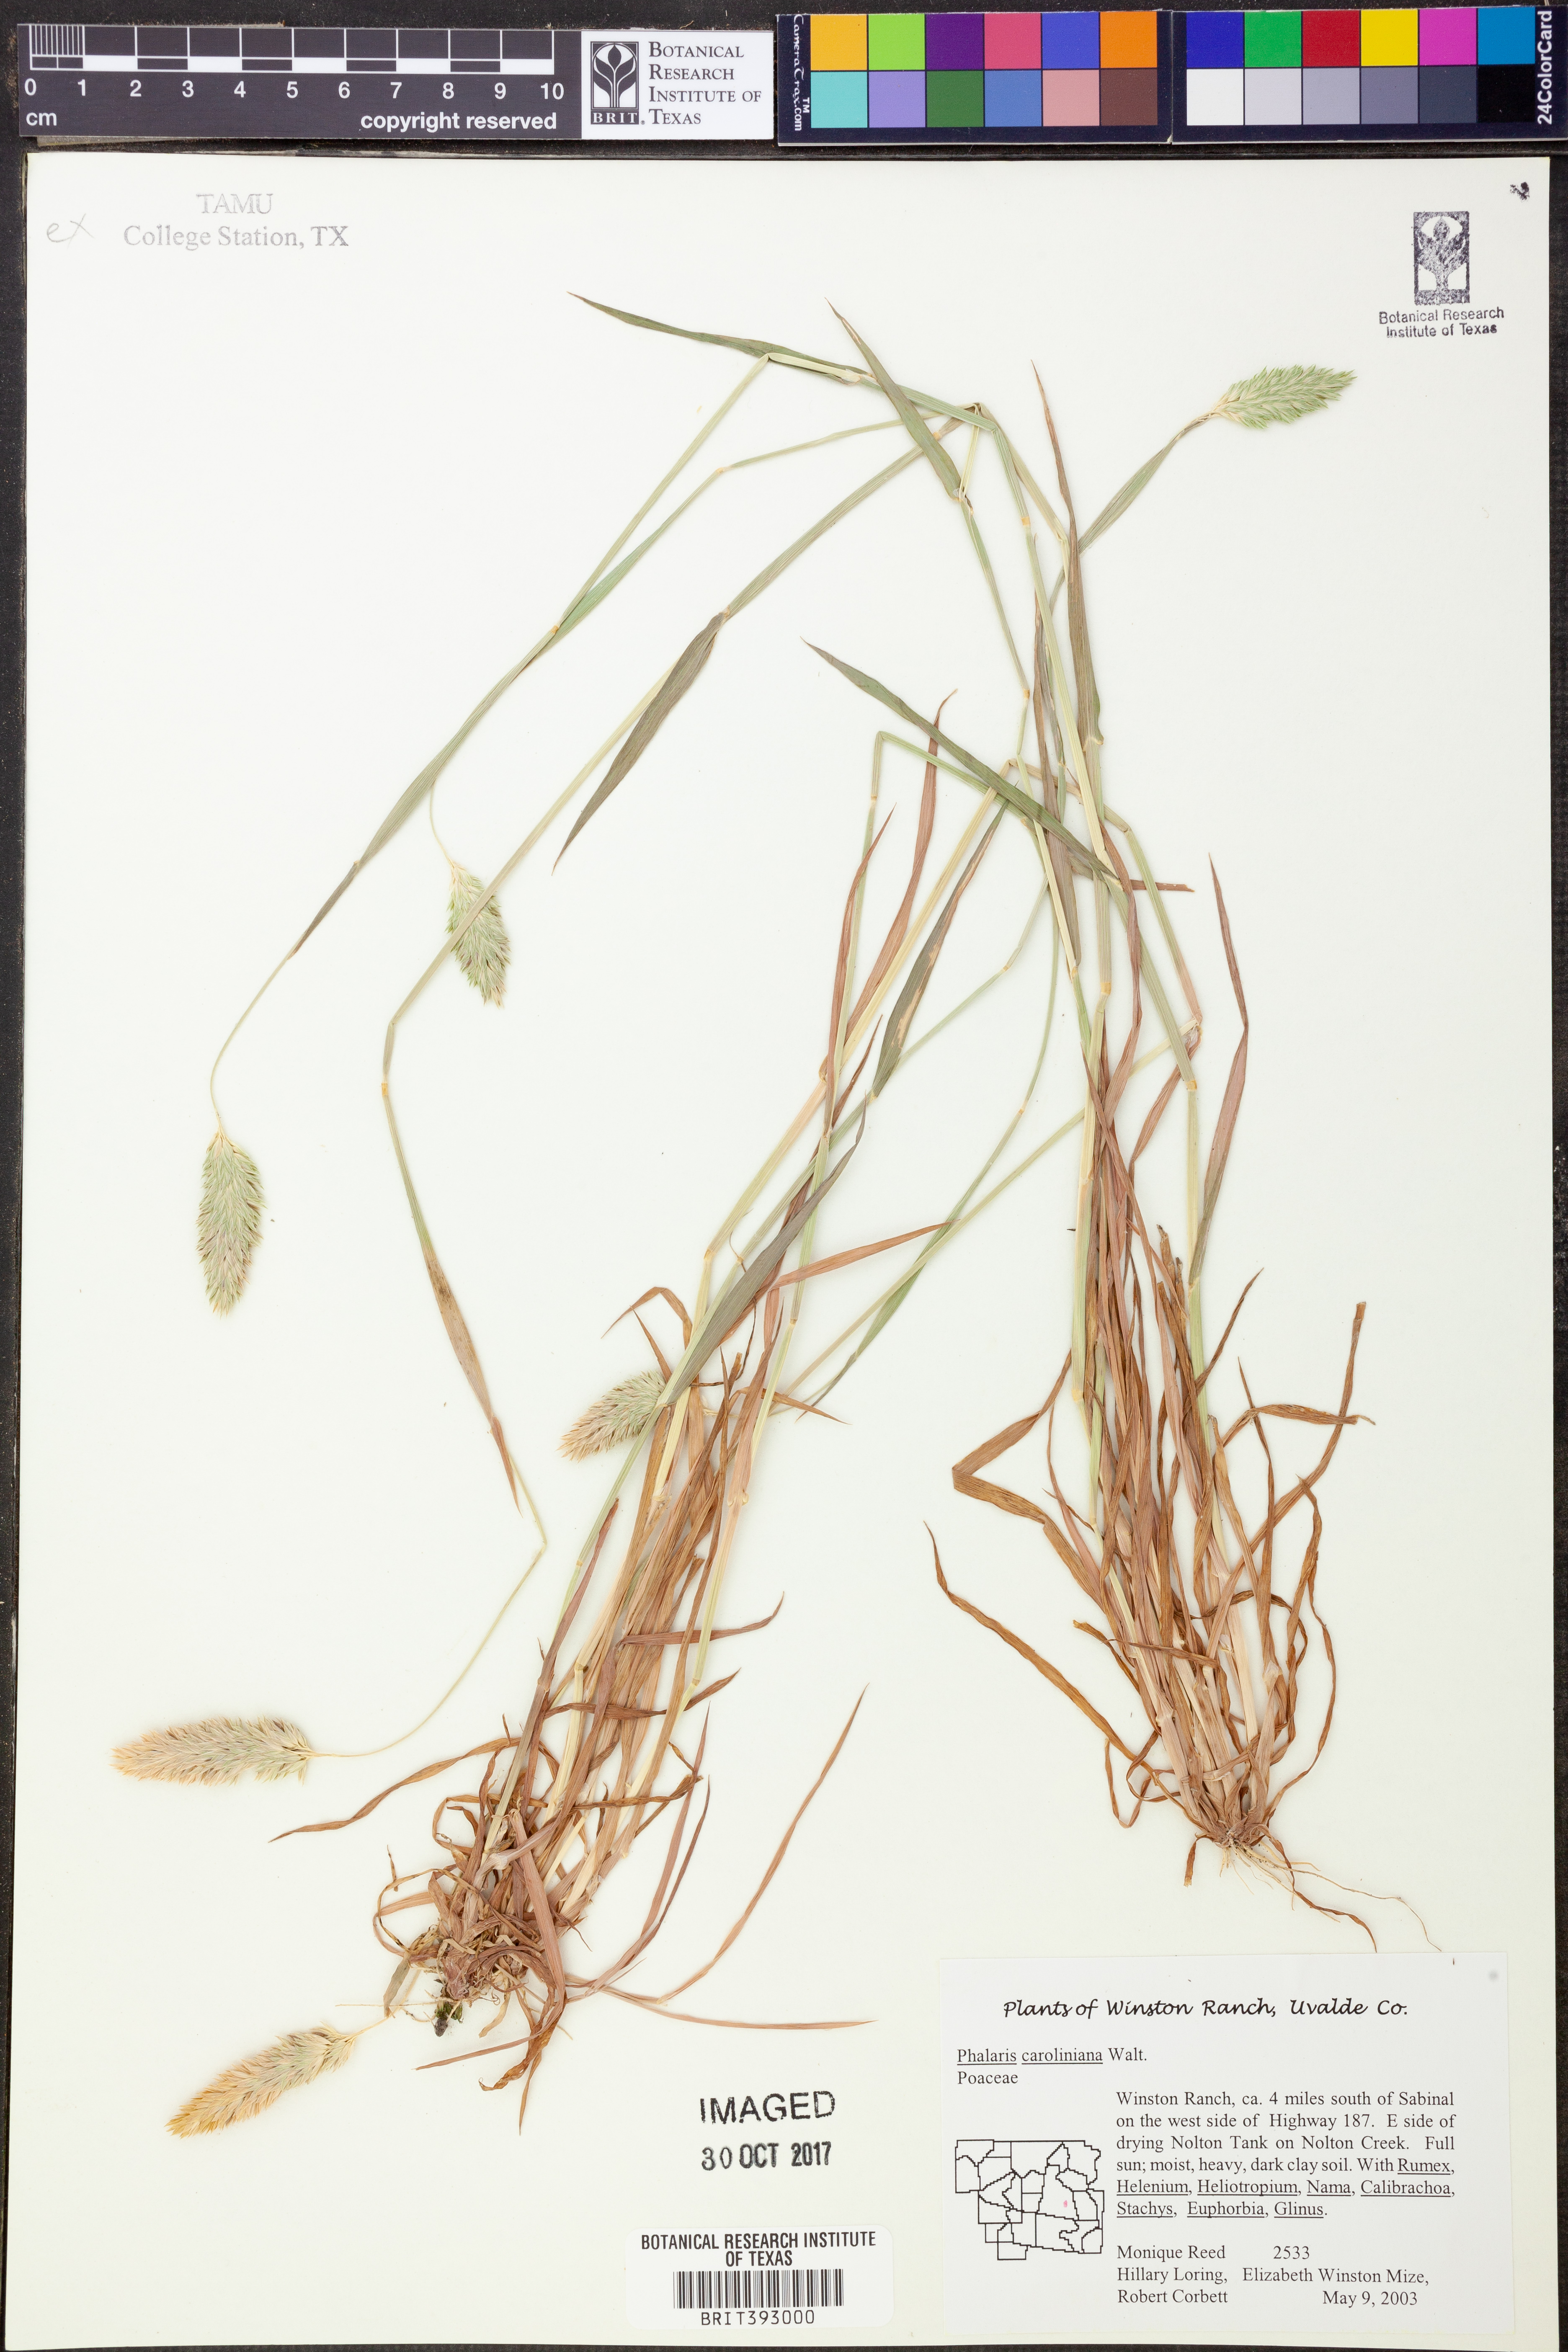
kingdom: Plantae
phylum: Tracheophyta
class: Liliopsida
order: Poales
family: Poaceae
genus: Phalaris
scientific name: Phalaris caroliniana
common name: May grass
